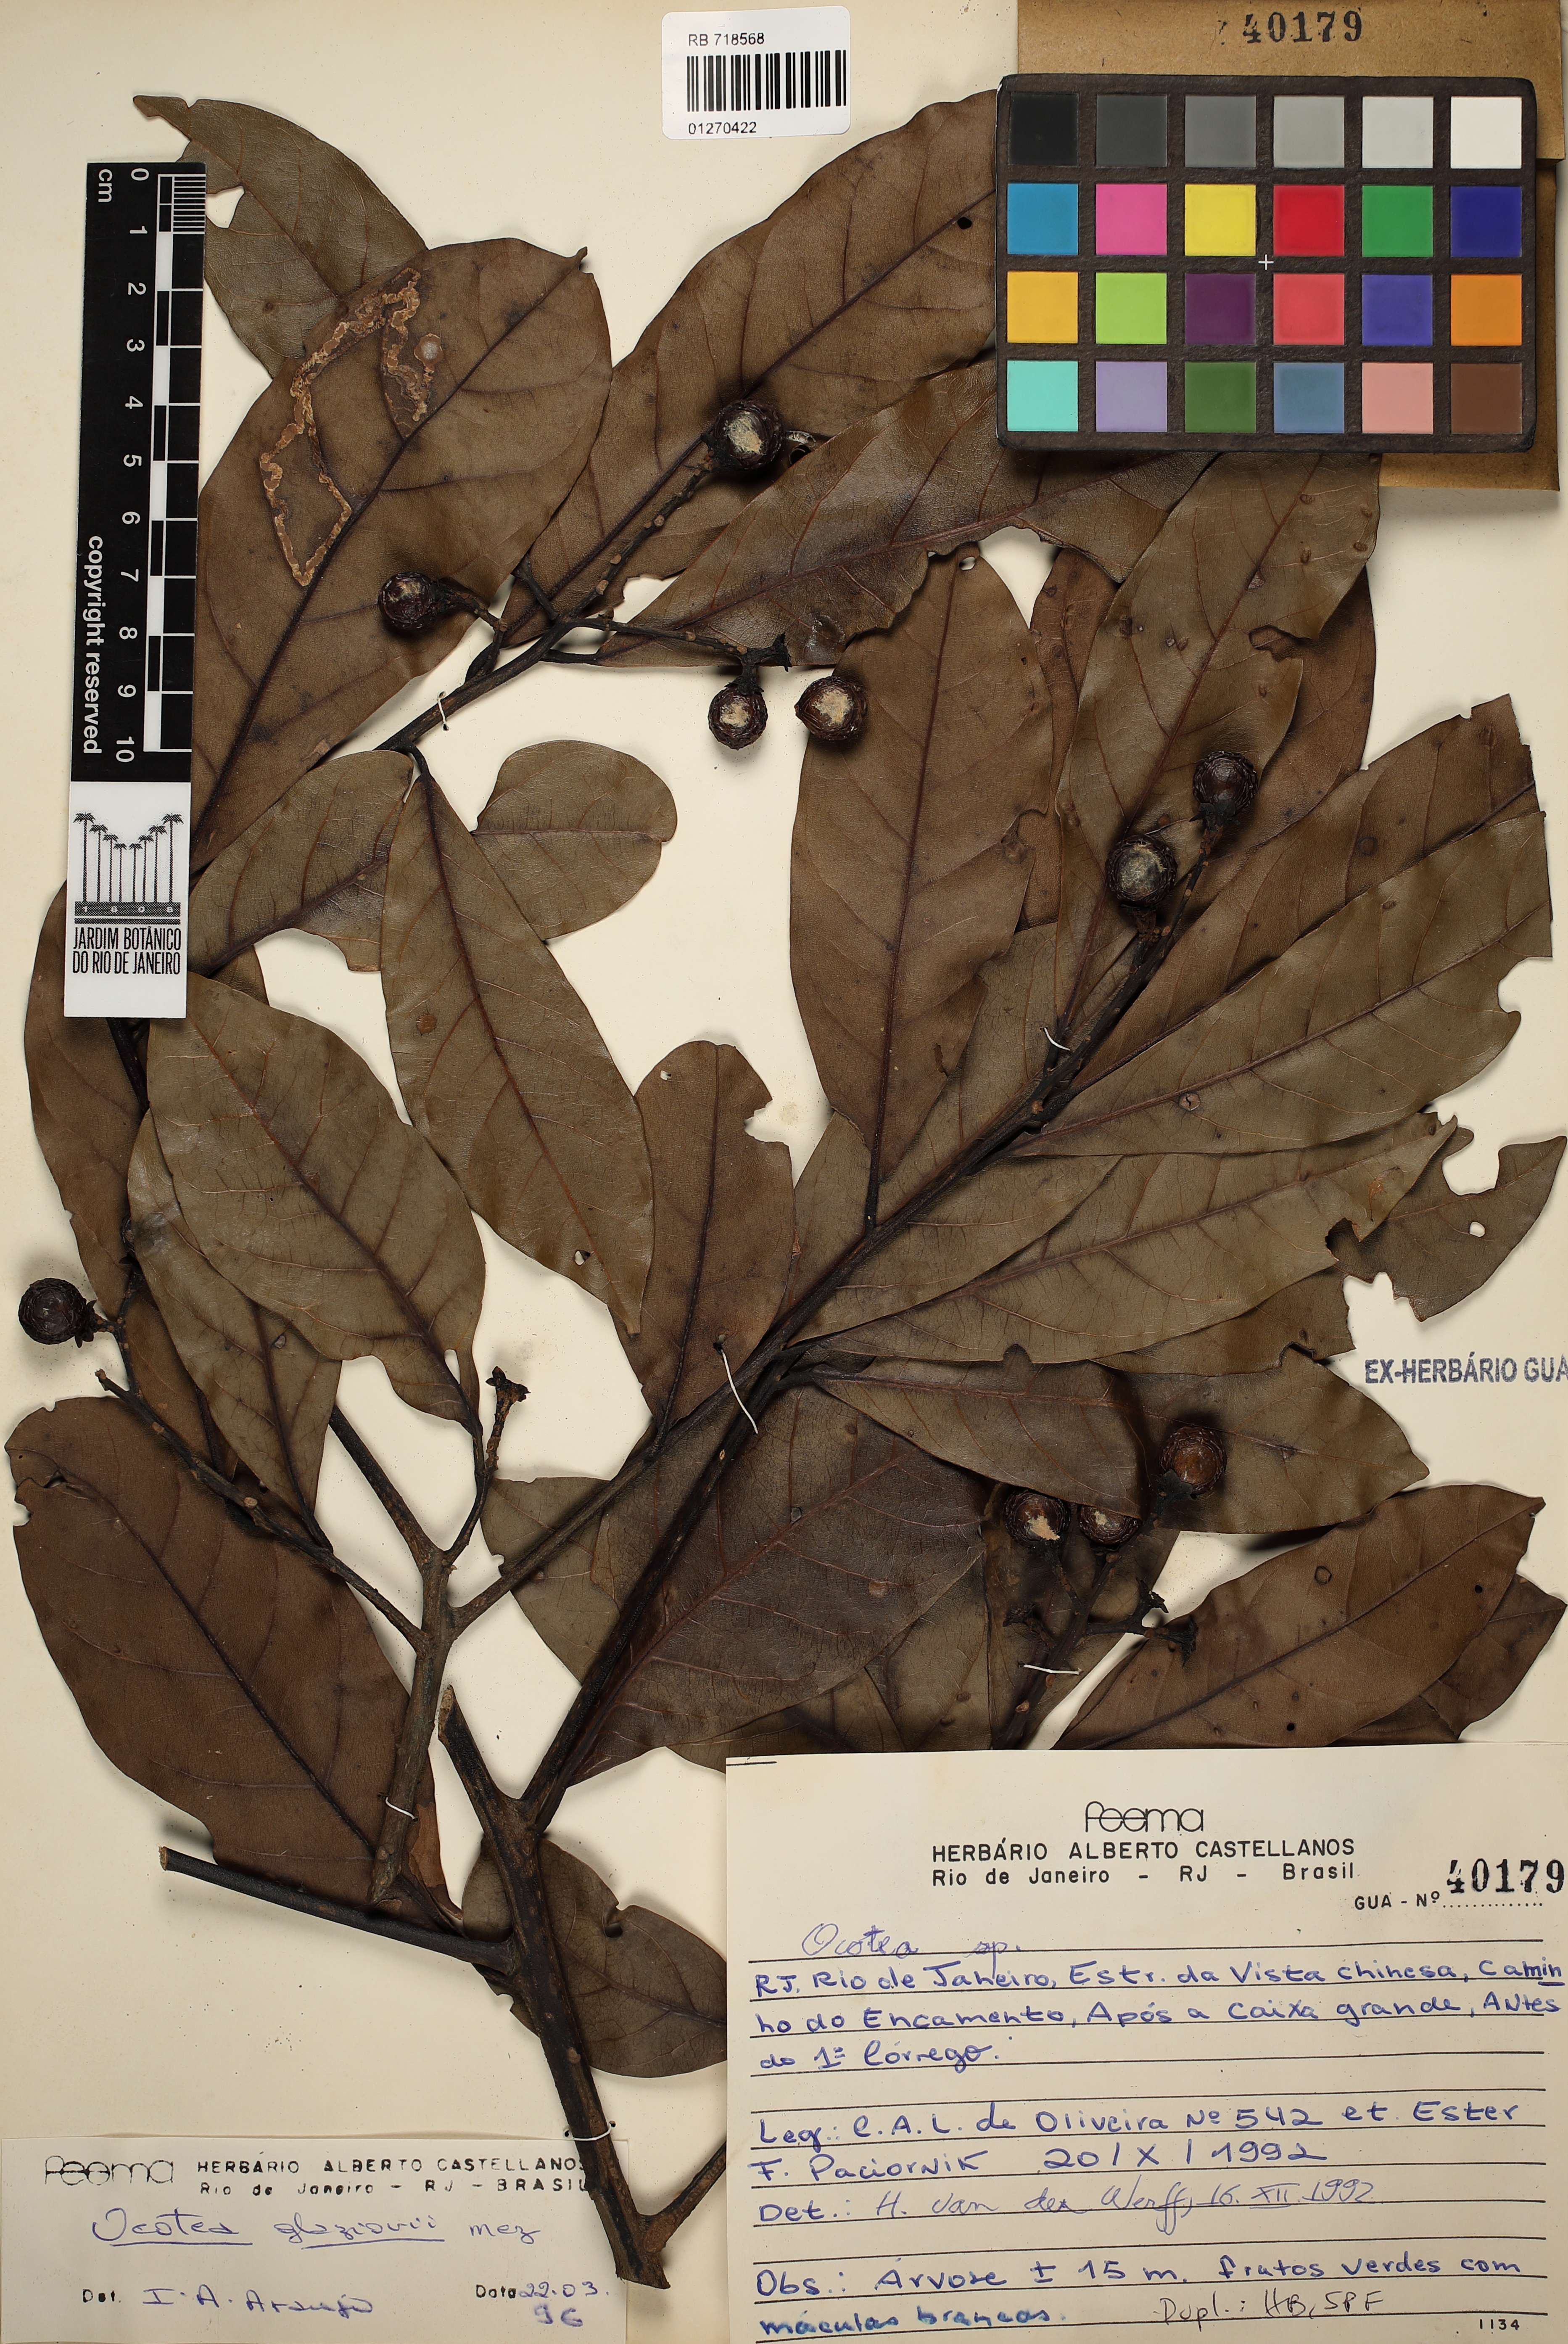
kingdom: Plantae
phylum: Tracheophyta
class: Magnoliopsida
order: Laurales
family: Lauraceae
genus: Ocotea
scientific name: Ocotea glaziovii
